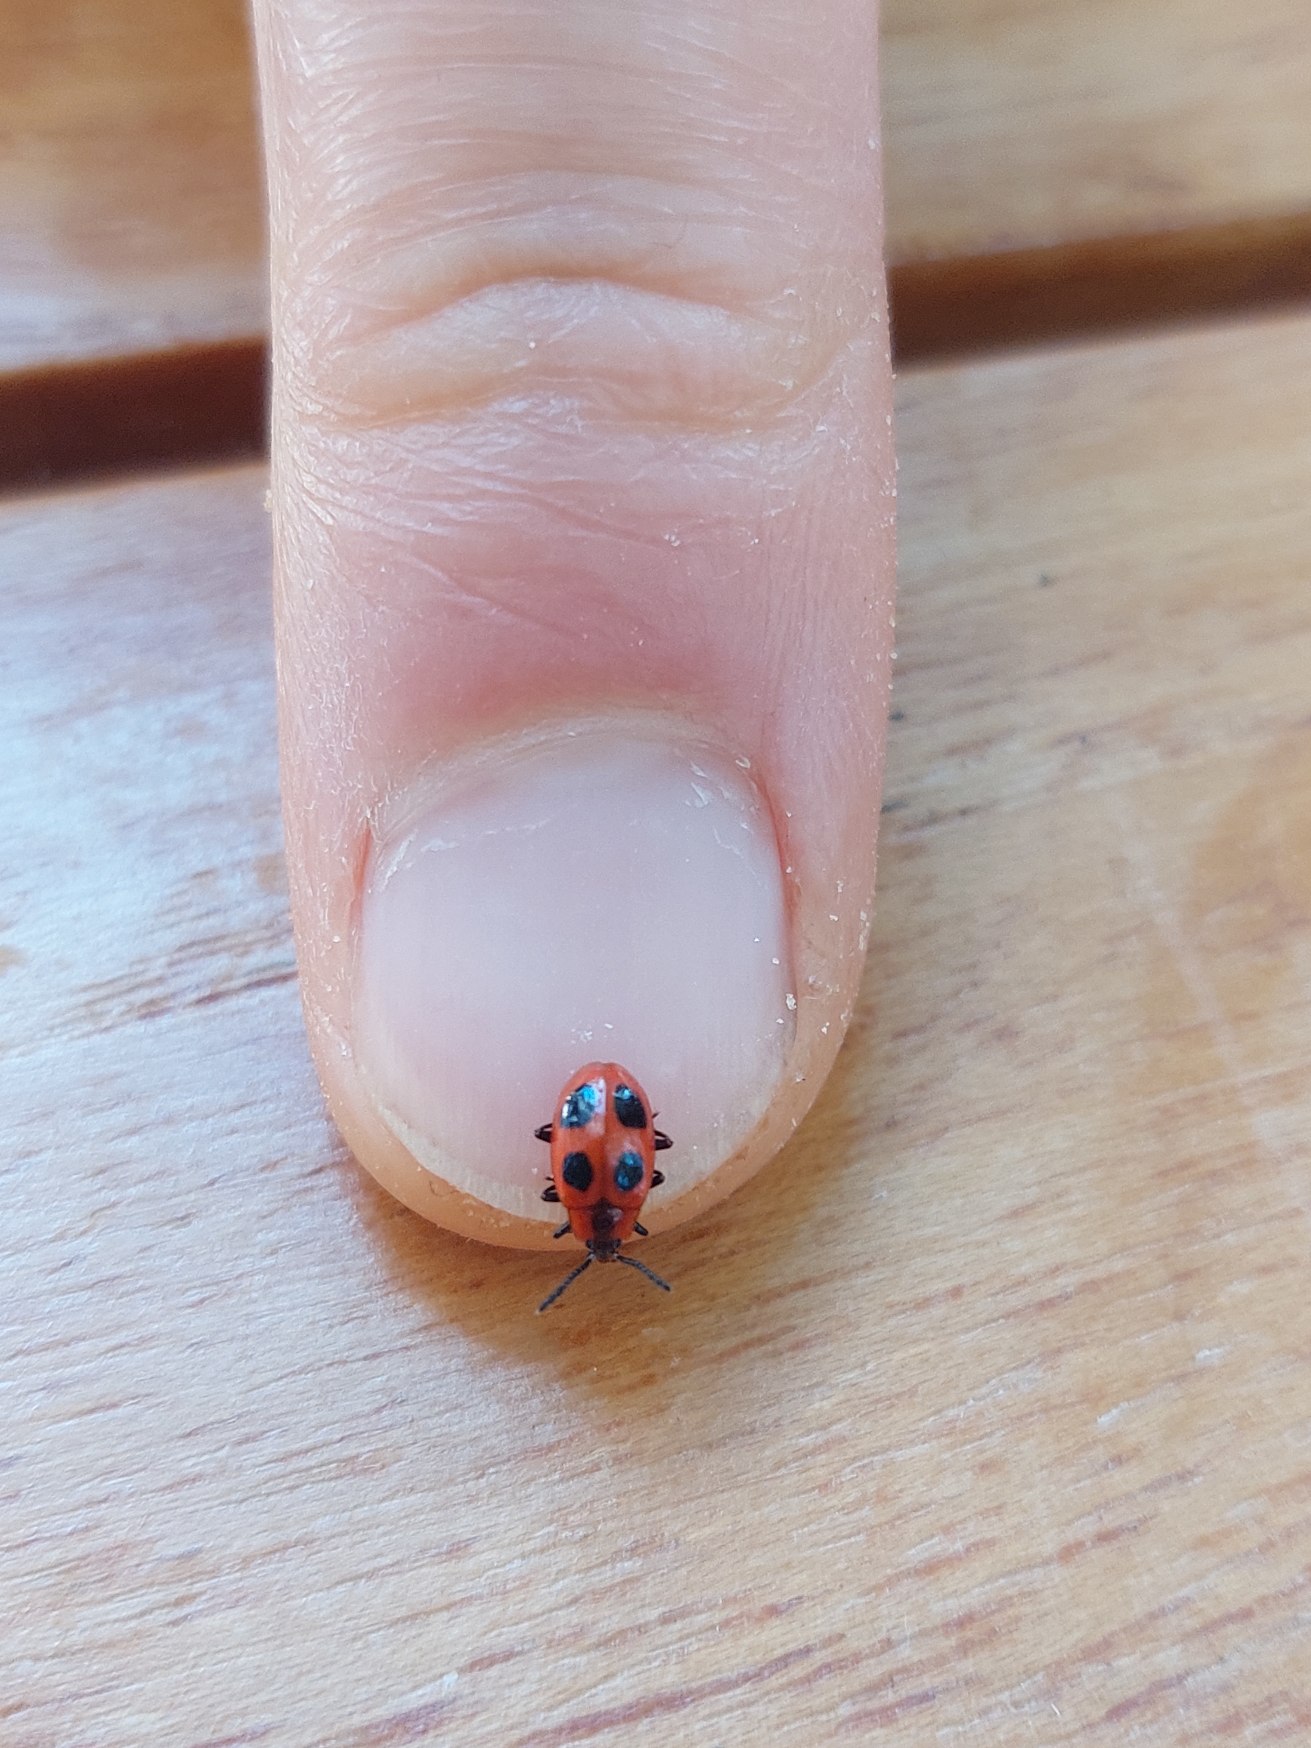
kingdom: Animalia
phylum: Arthropoda
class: Insecta
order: Coleoptera
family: Endomychidae
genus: Endomychus
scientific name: Endomychus coccineus
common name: Skarlagensvampehøne
